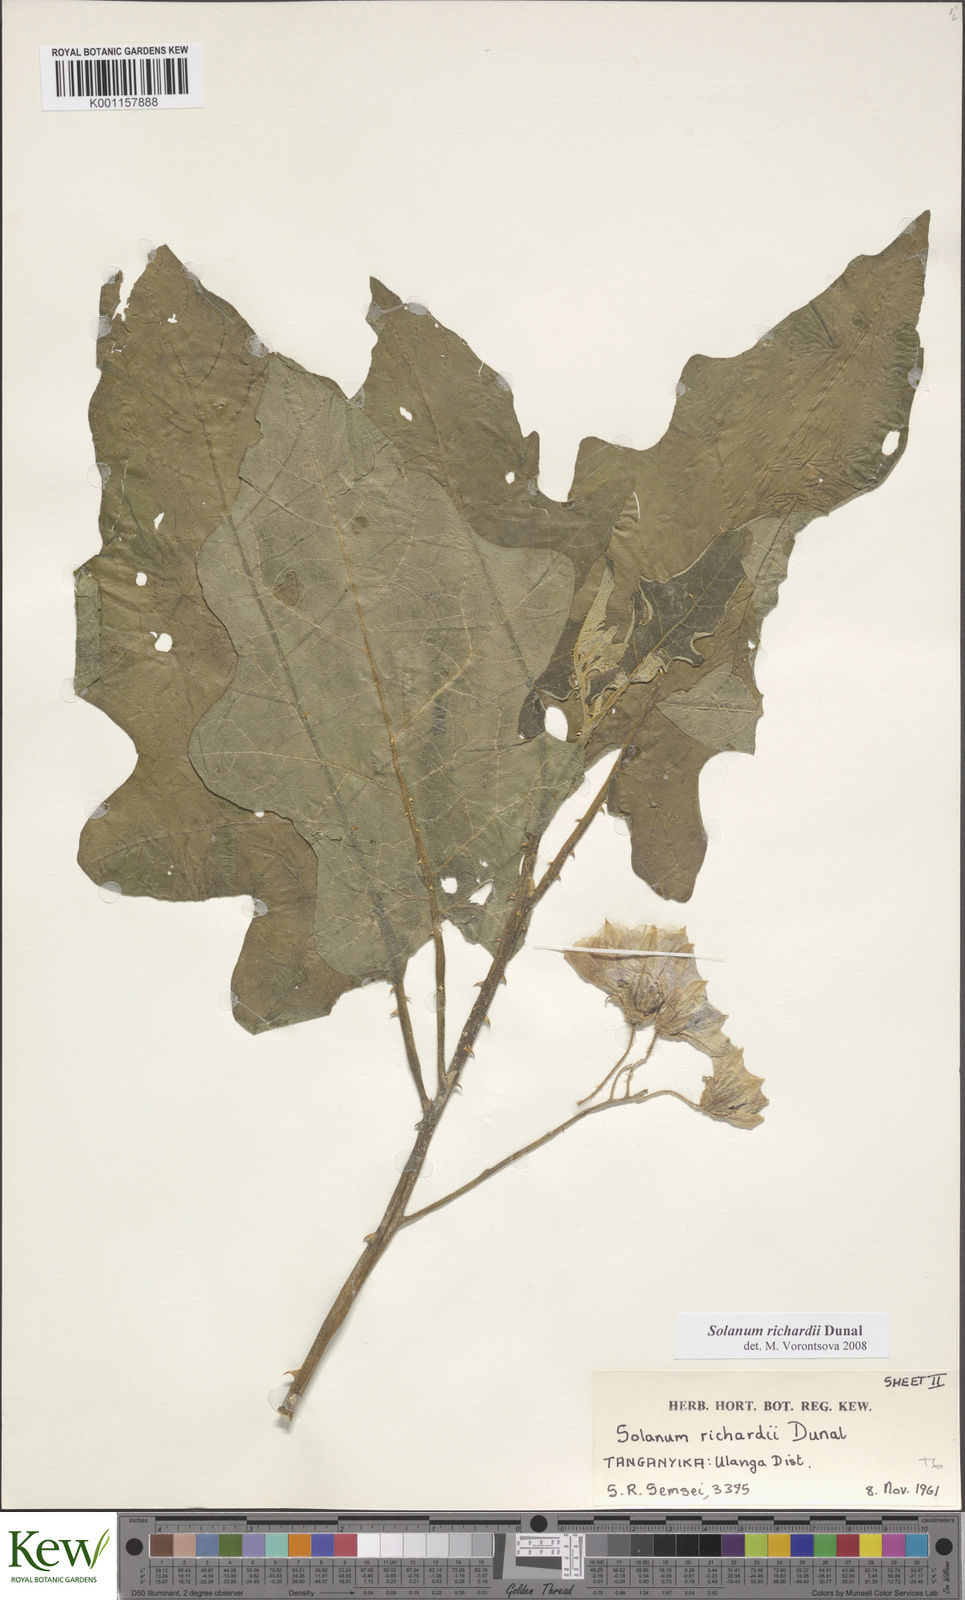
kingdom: Plantae
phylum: Tracheophyta
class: Magnoliopsida
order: Solanales
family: Solanaceae
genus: Solanum
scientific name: Solanum
